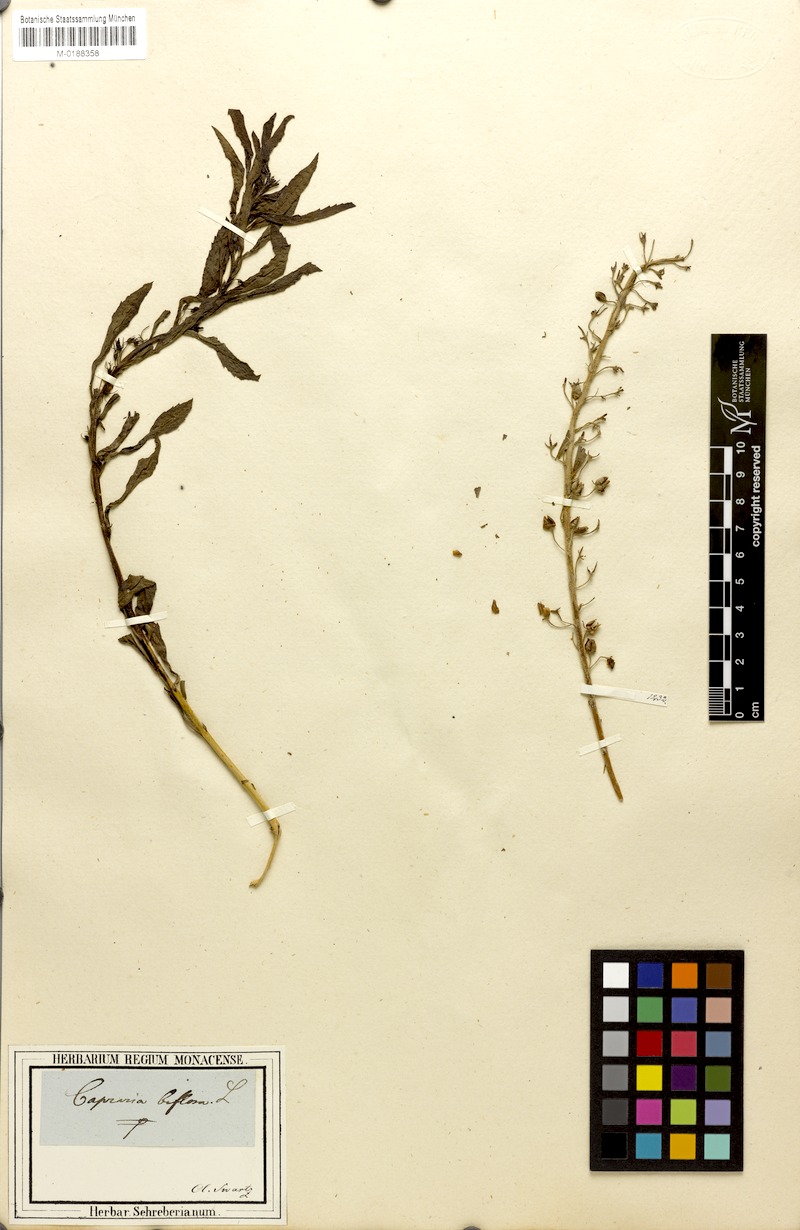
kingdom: Plantae
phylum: Tracheophyta
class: Magnoliopsida
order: Lamiales
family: Scrophulariaceae
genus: Capraria
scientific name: Capraria biflora
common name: Goatweed
